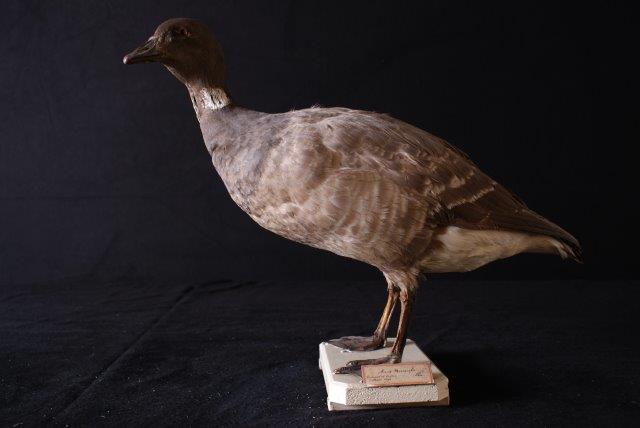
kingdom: Animalia
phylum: Chordata
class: Aves
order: Anseriformes
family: Anatidae
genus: Branta
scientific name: Branta bernicla
